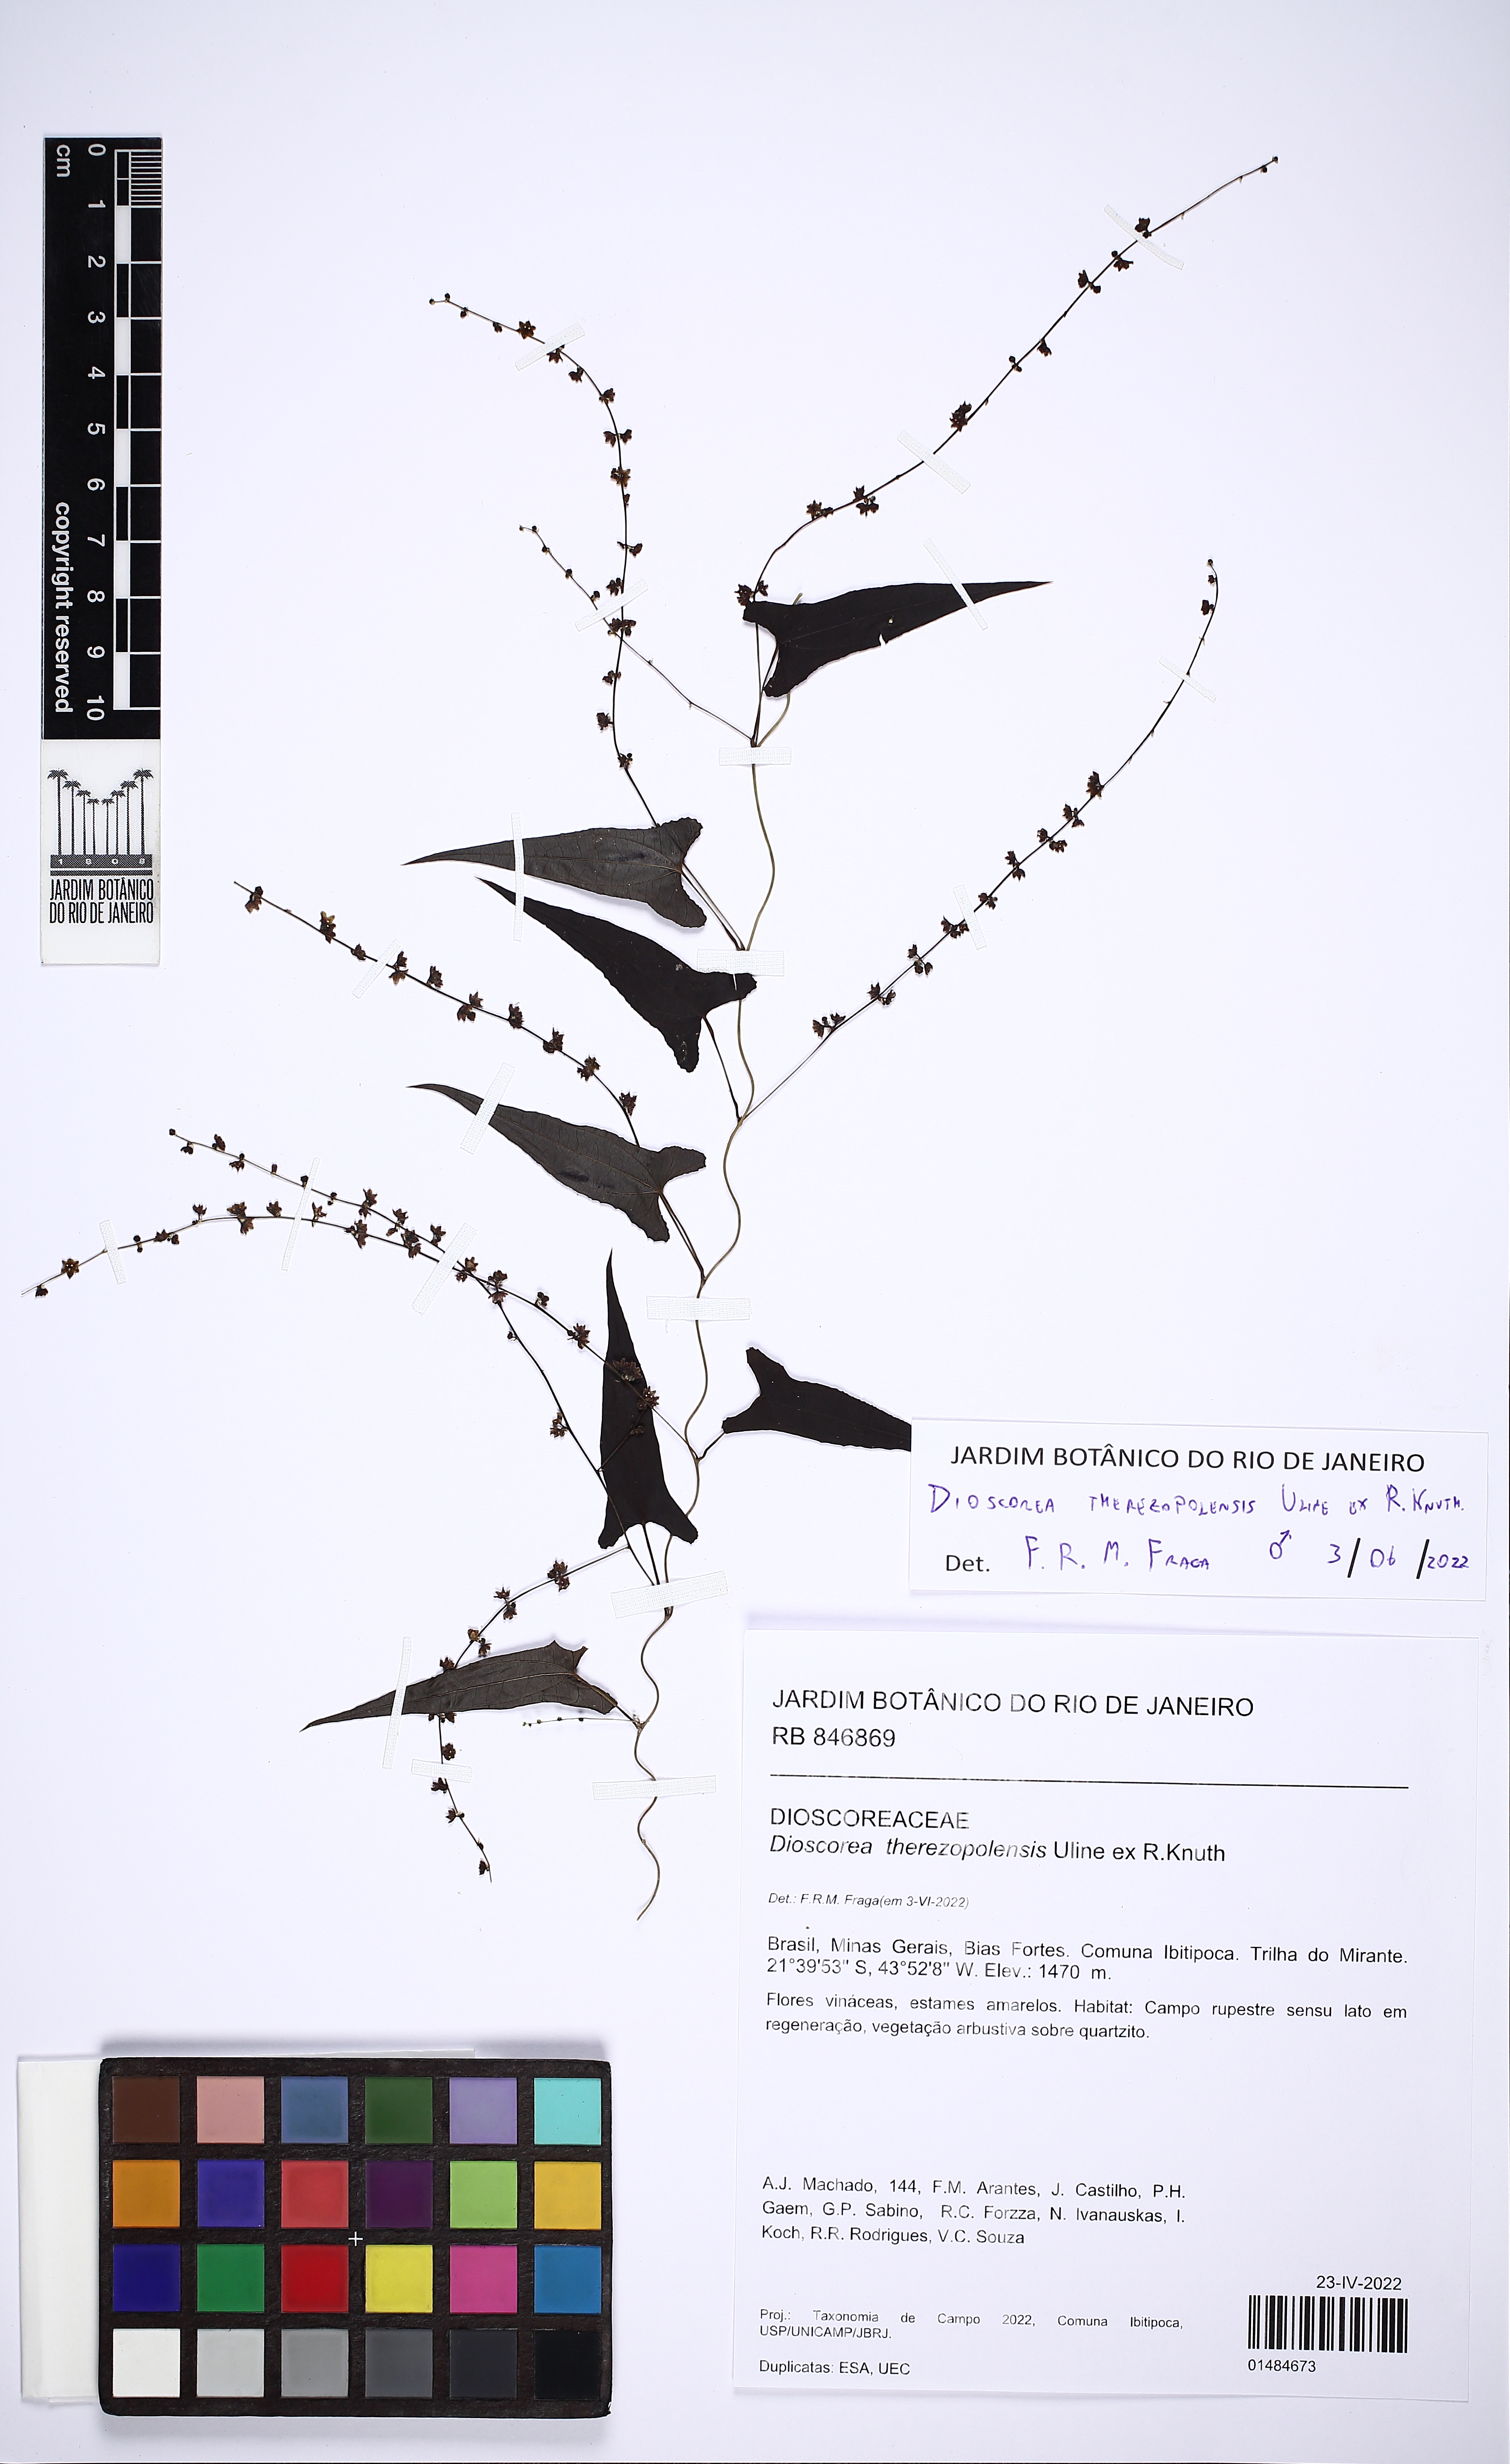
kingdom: Plantae
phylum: Tracheophyta
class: Liliopsida
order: Dioscoreales
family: Dioscoreaceae
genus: Dioscorea
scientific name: Dioscorea therezopolensis
